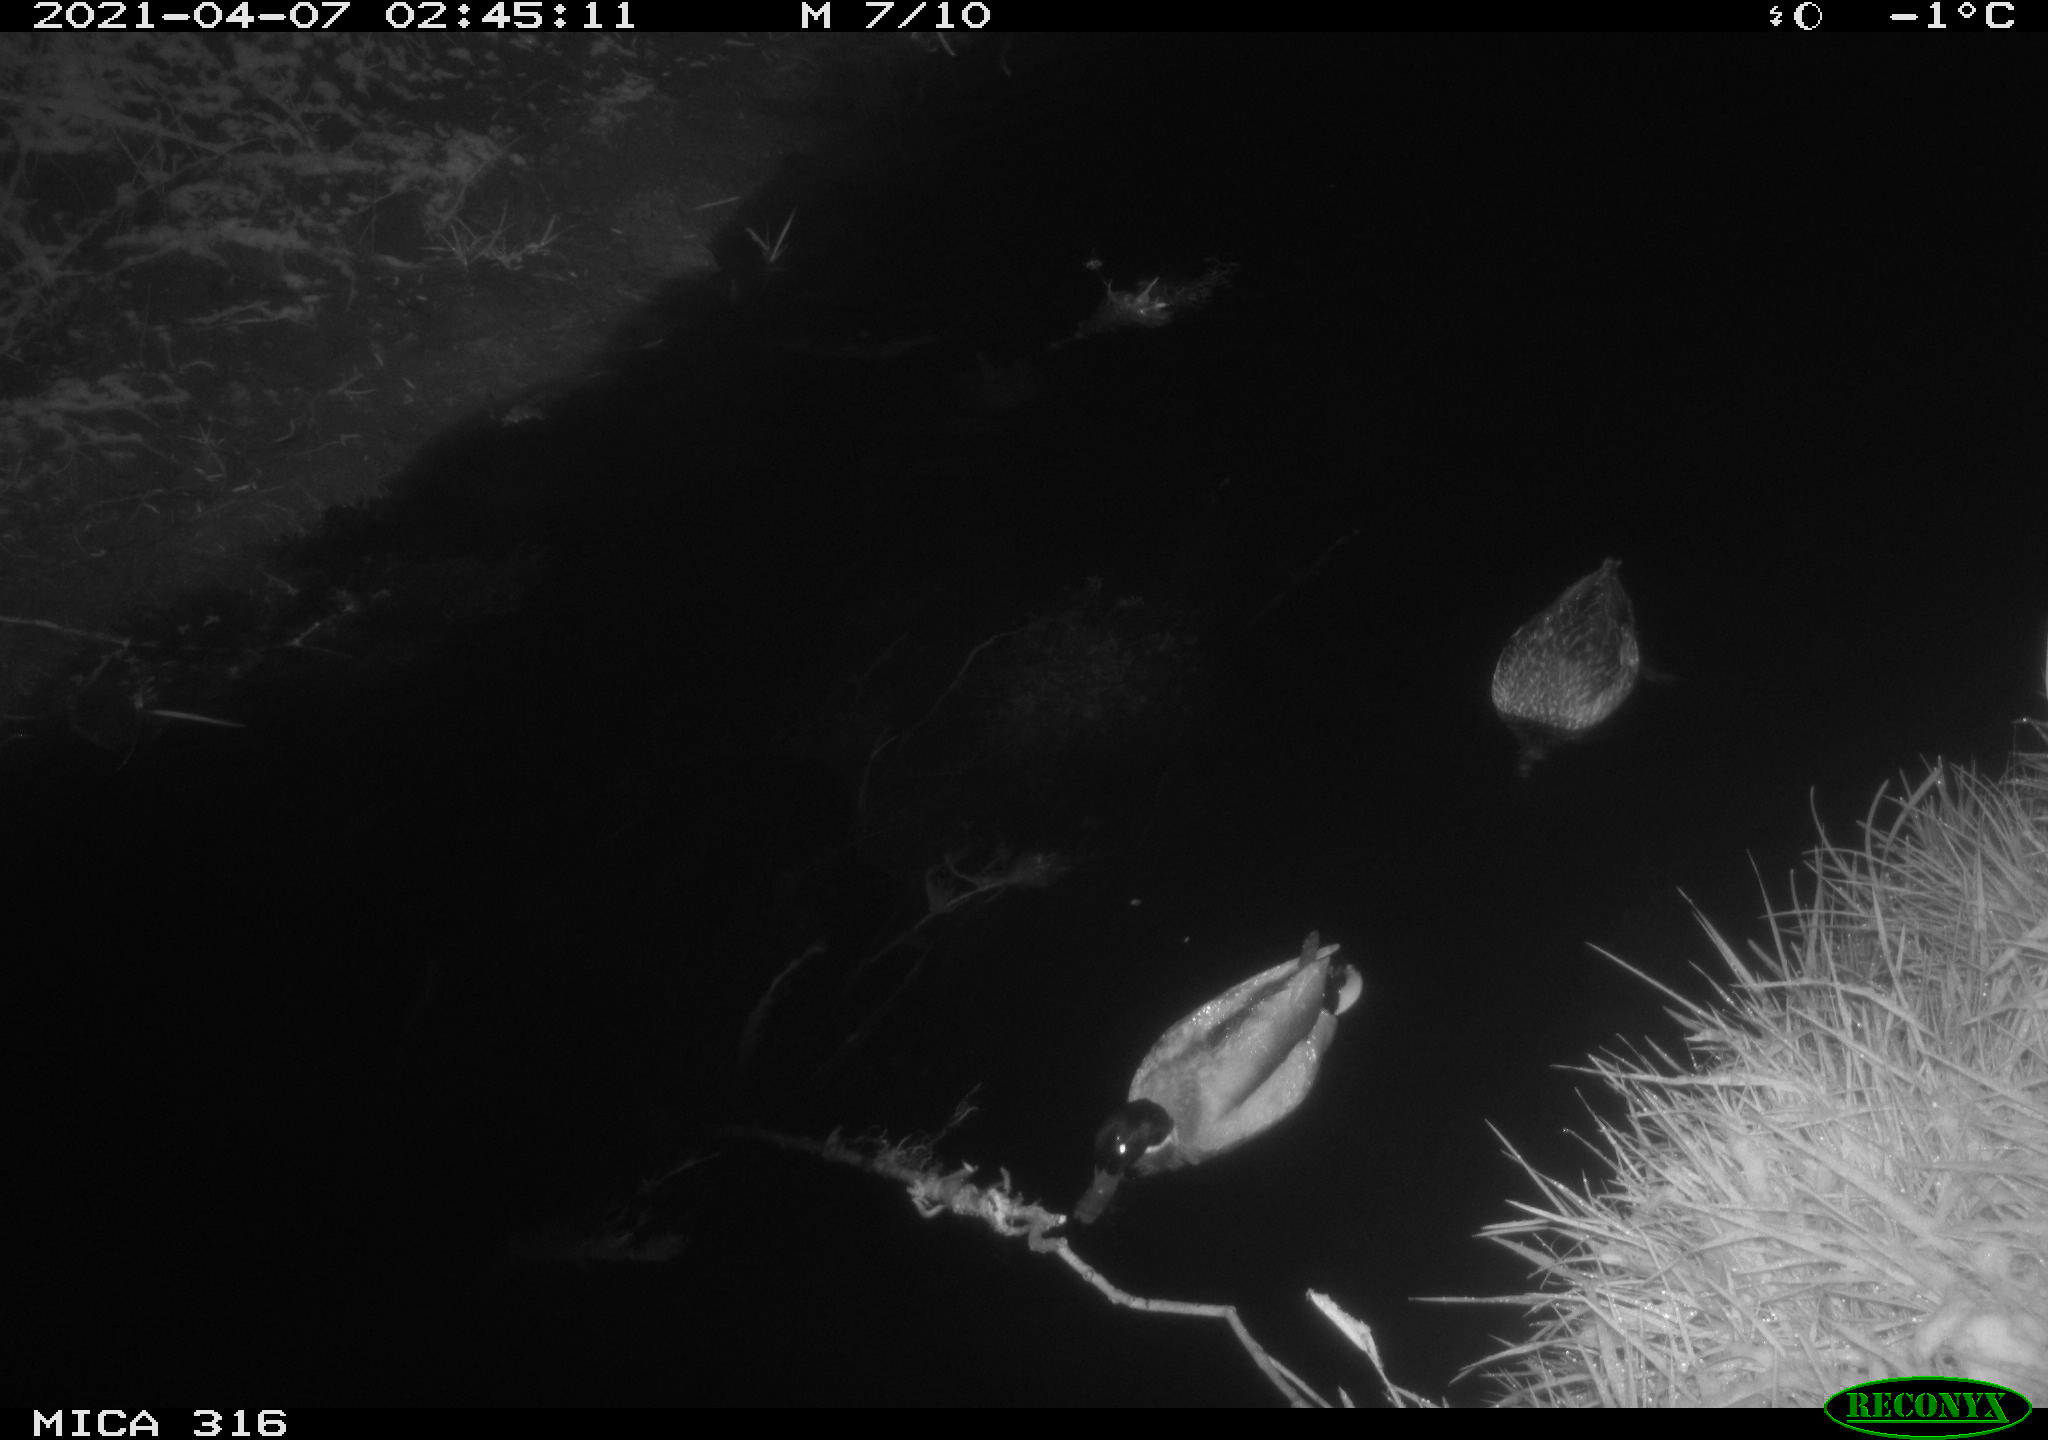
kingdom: Animalia
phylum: Chordata
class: Aves
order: Anseriformes
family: Anatidae
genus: Anas
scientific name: Anas platyrhynchos
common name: Mallard
